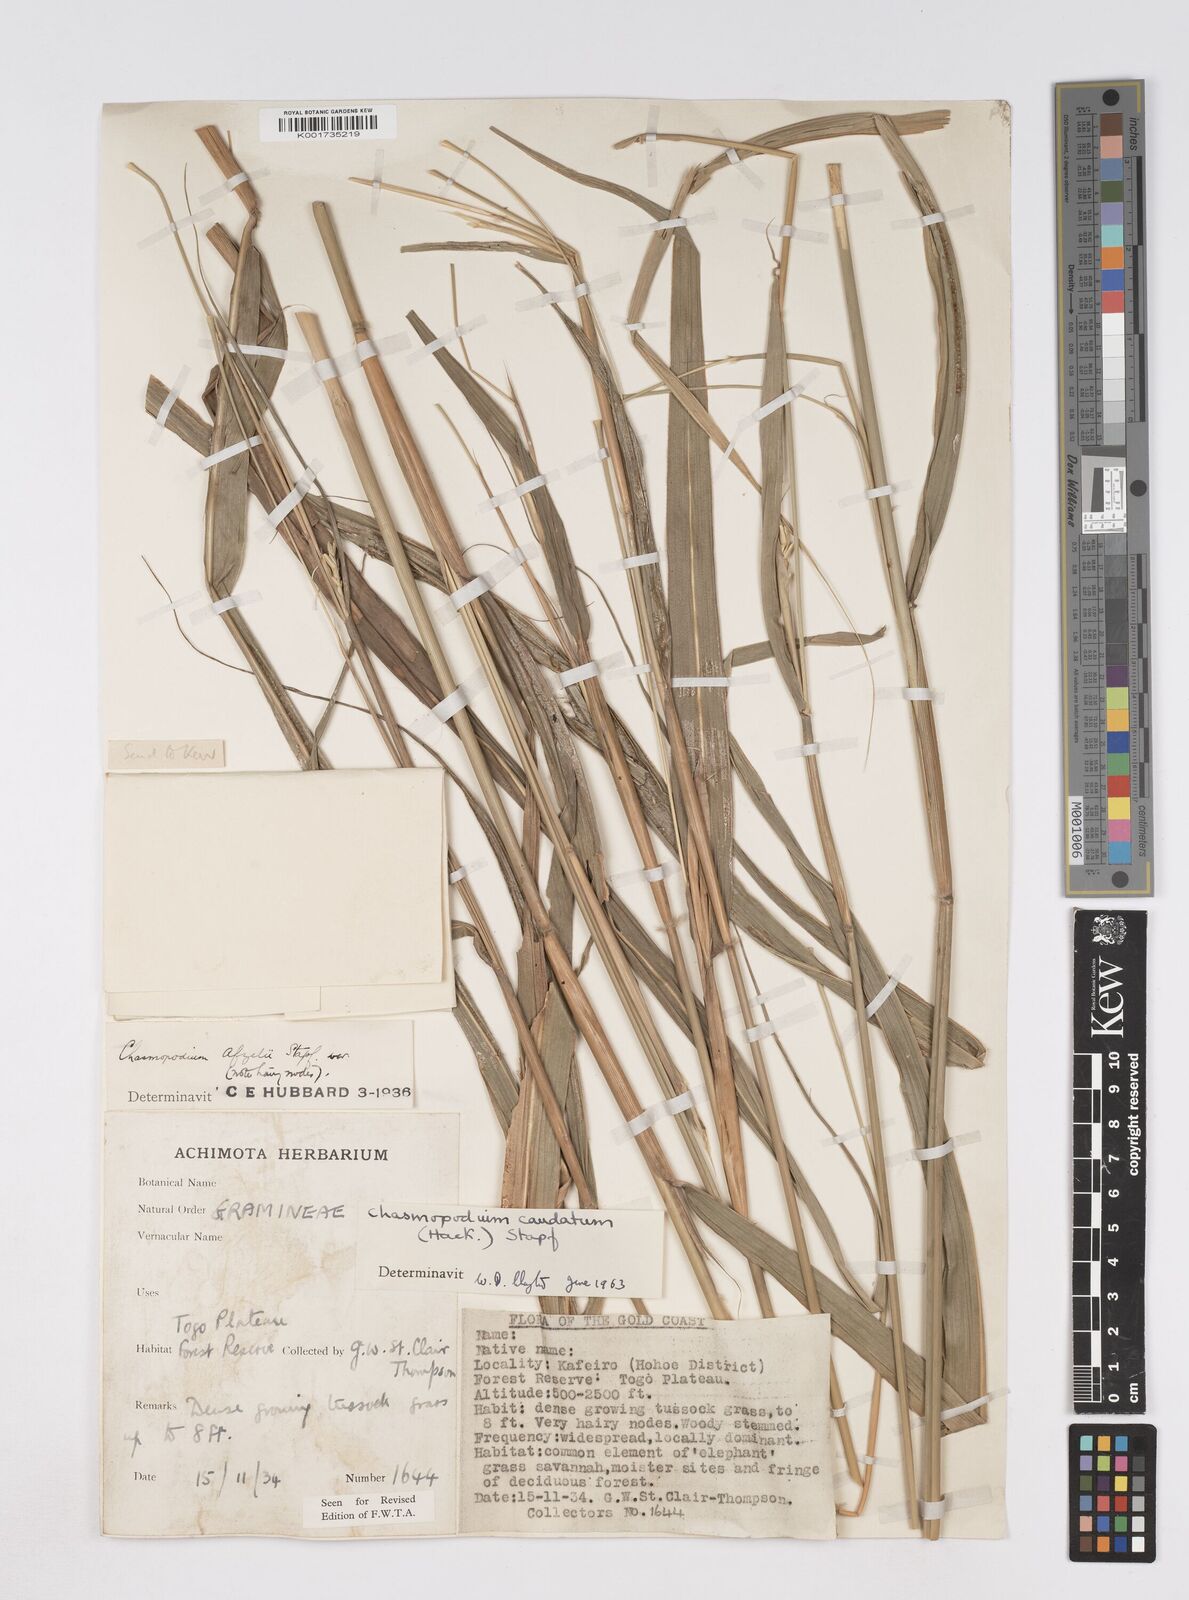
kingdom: Plantae
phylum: Tracheophyta
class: Liliopsida
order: Poales
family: Poaceae
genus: Chasmopodium
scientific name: Chasmopodium caudatum
